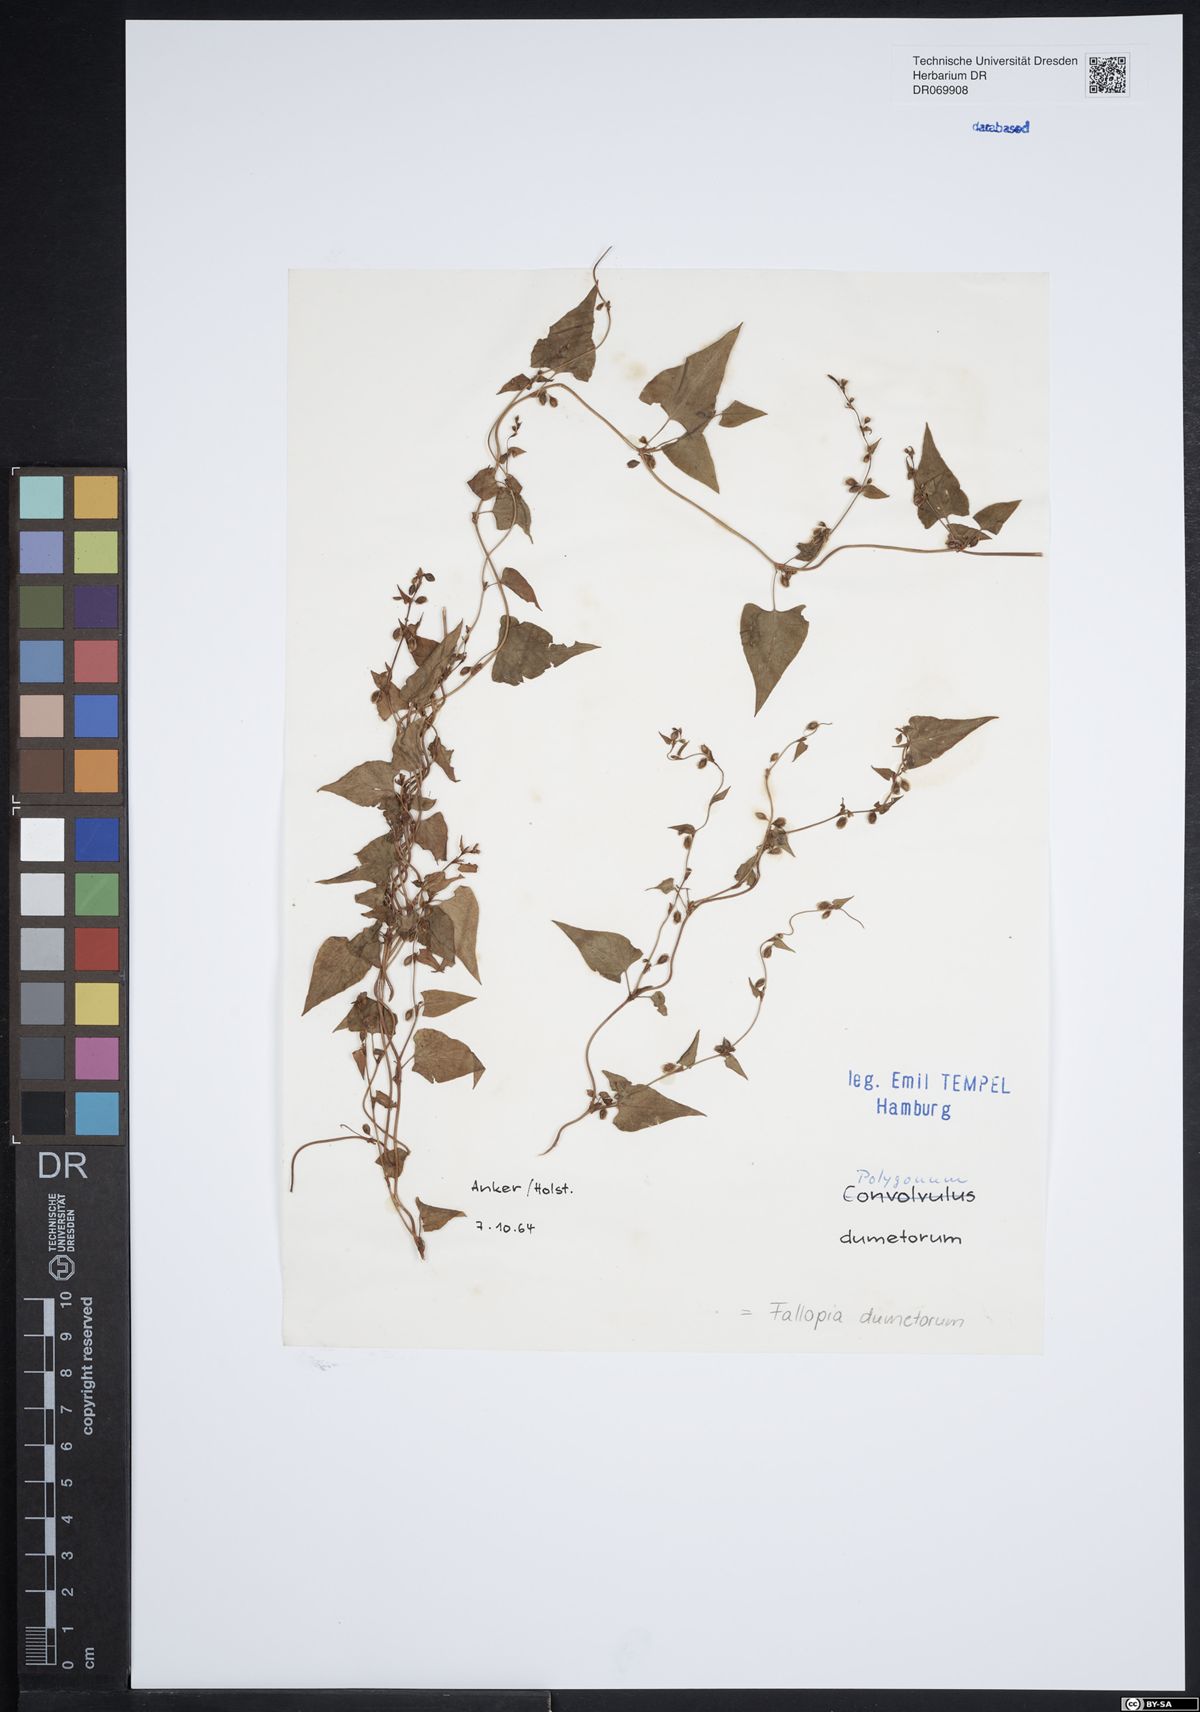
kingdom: Plantae
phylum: Tracheophyta
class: Magnoliopsida
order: Caryophyllales
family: Polygonaceae
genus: Fallopia
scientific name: Fallopia dumetorum
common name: Copse-bindweed
